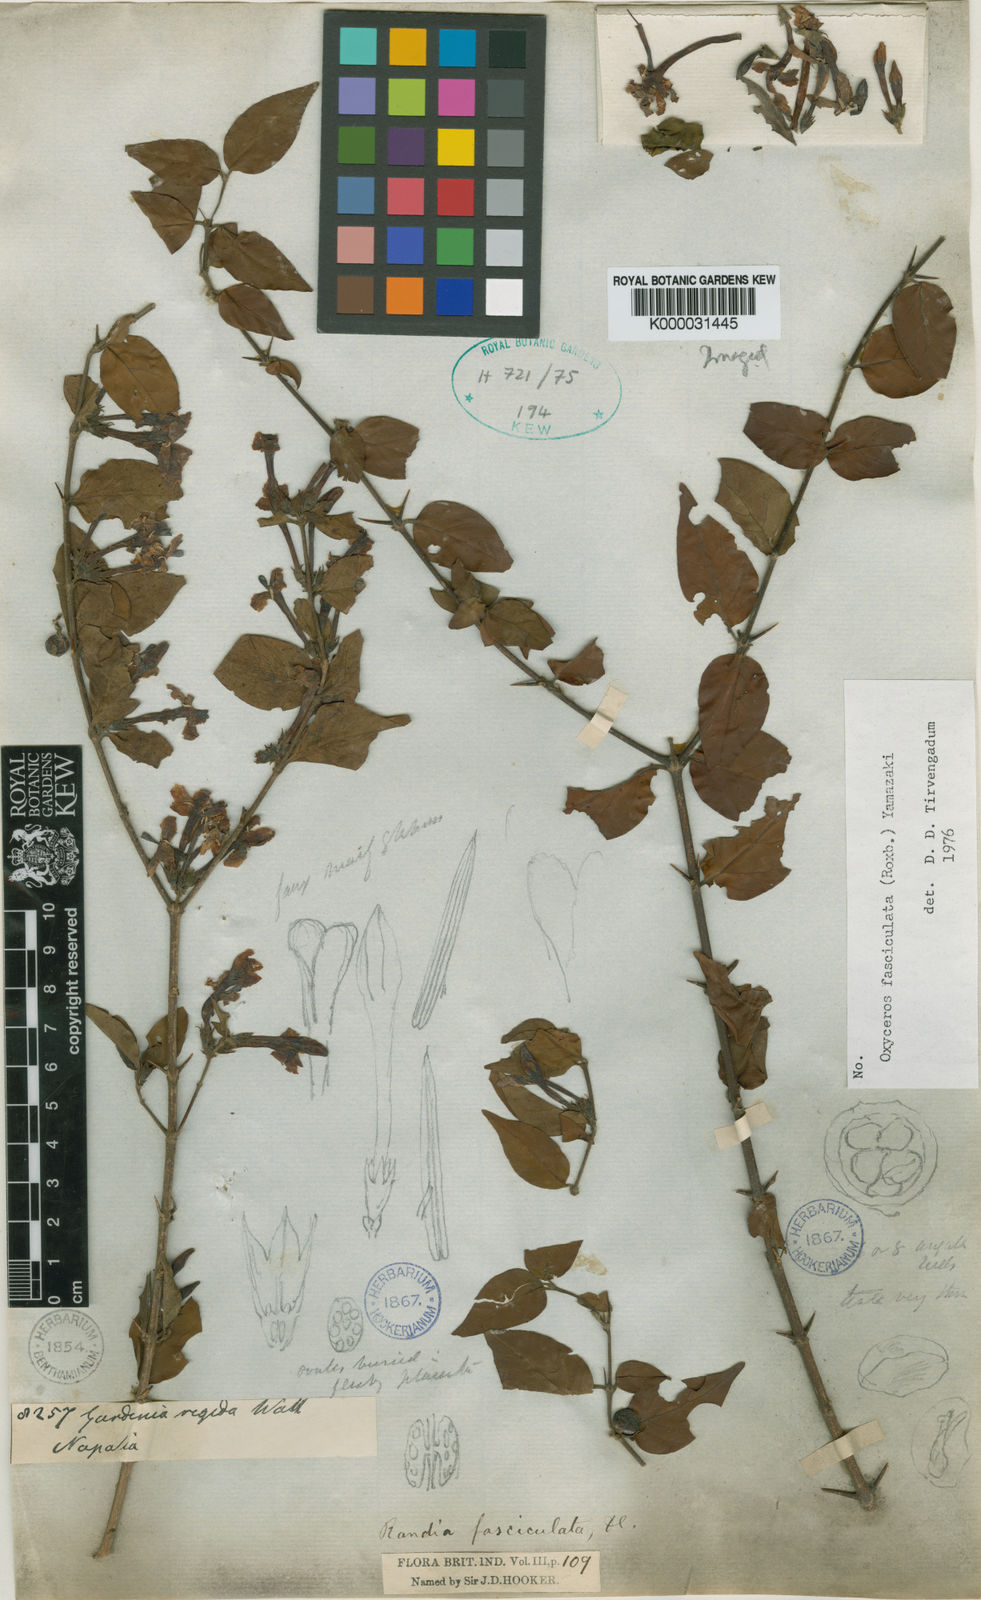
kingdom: Plantae
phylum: Tracheophyta
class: Magnoliopsida
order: Gentianales
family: Rubiaceae
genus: Benkara
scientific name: Benkara fasciculata
